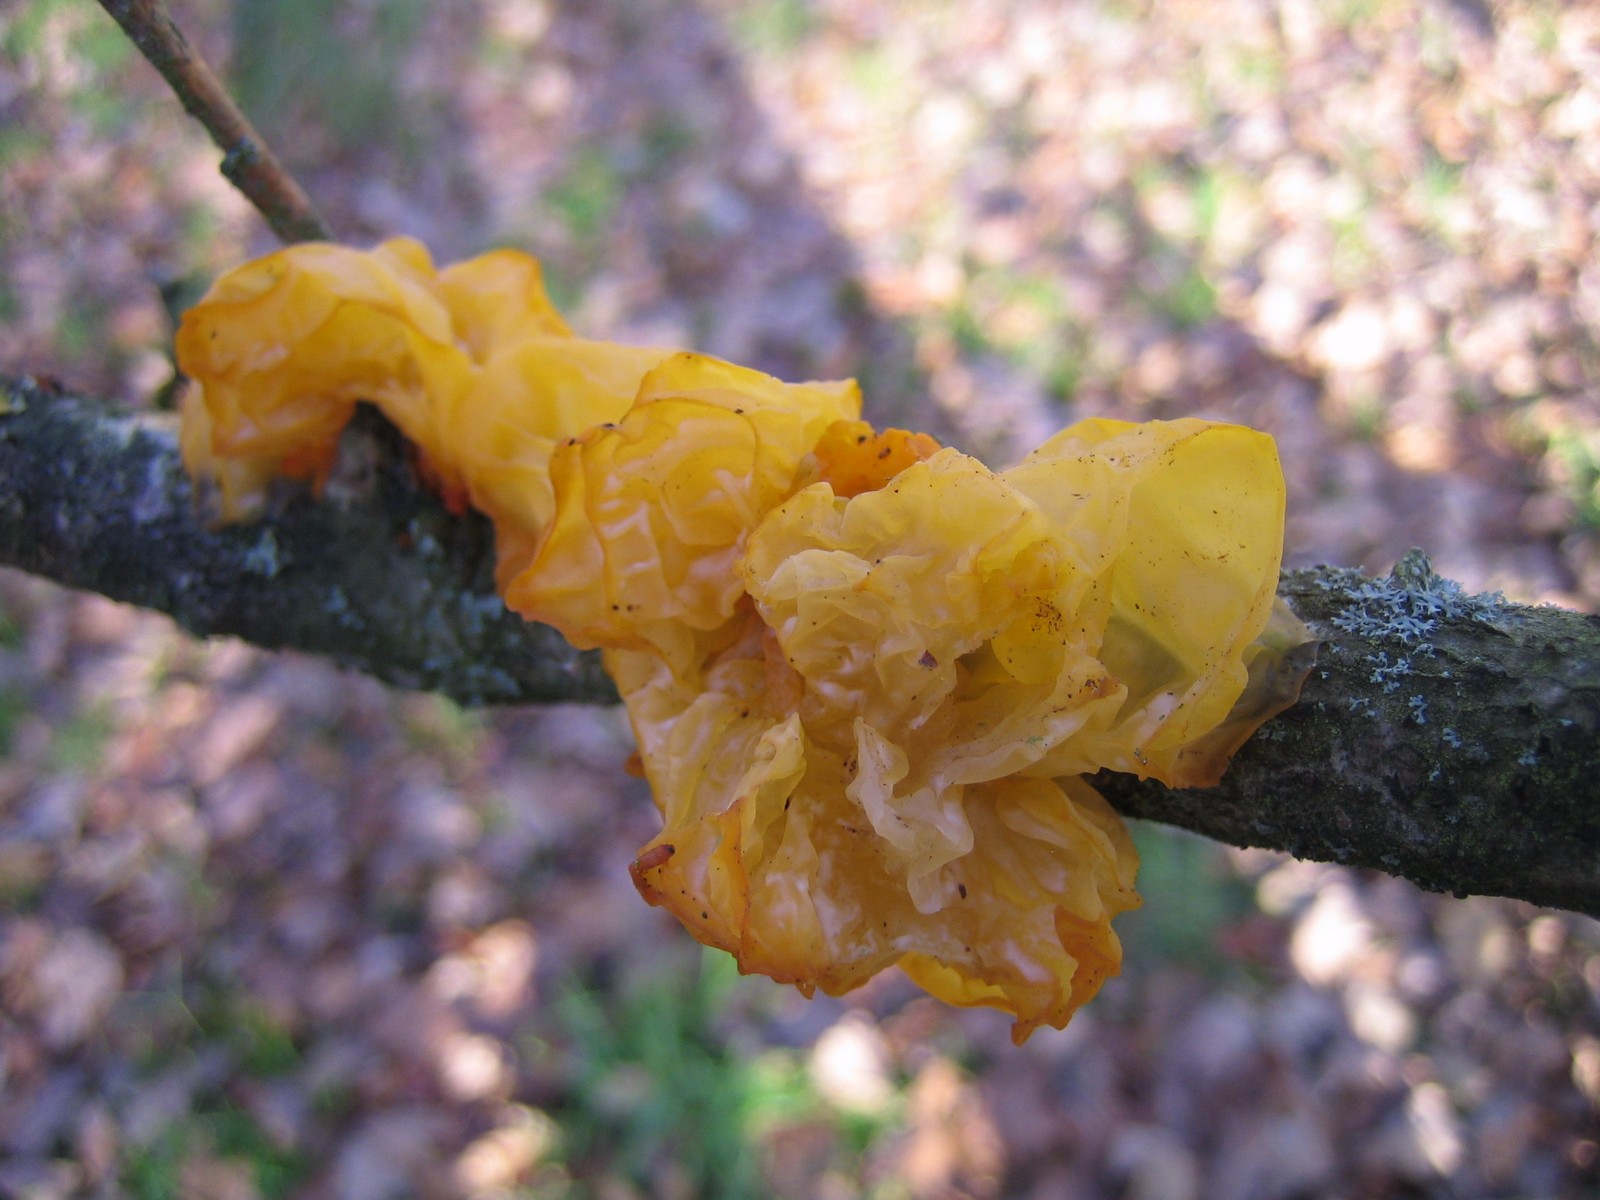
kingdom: Fungi
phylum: Basidiomycota
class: Tremellomycetes
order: Tremellales
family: Tremellaceae
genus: Tremella
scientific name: Tremella mesenterica
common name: gul bævresvamp
